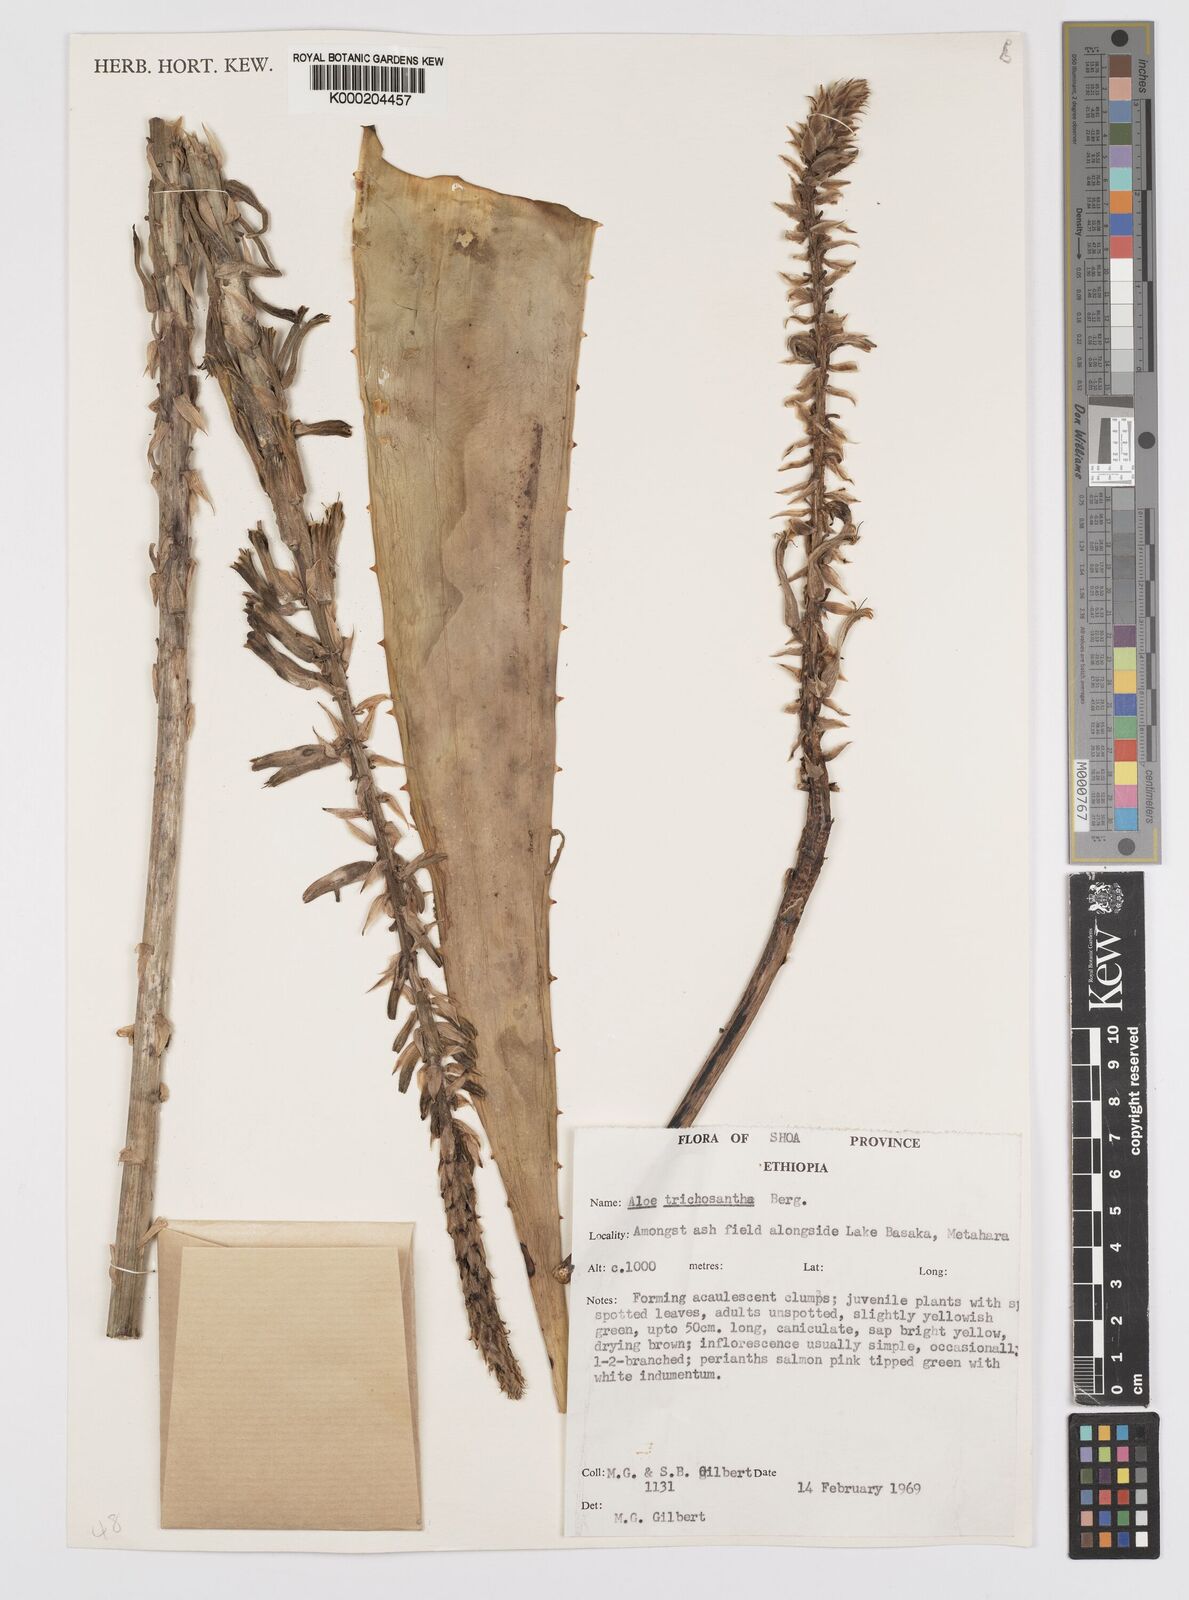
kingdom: Plantae
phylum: Tracheophyta
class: Liliopsida
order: Asparagales
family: Asphodelaceae
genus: Aloe
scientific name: Aloe trichosantha
